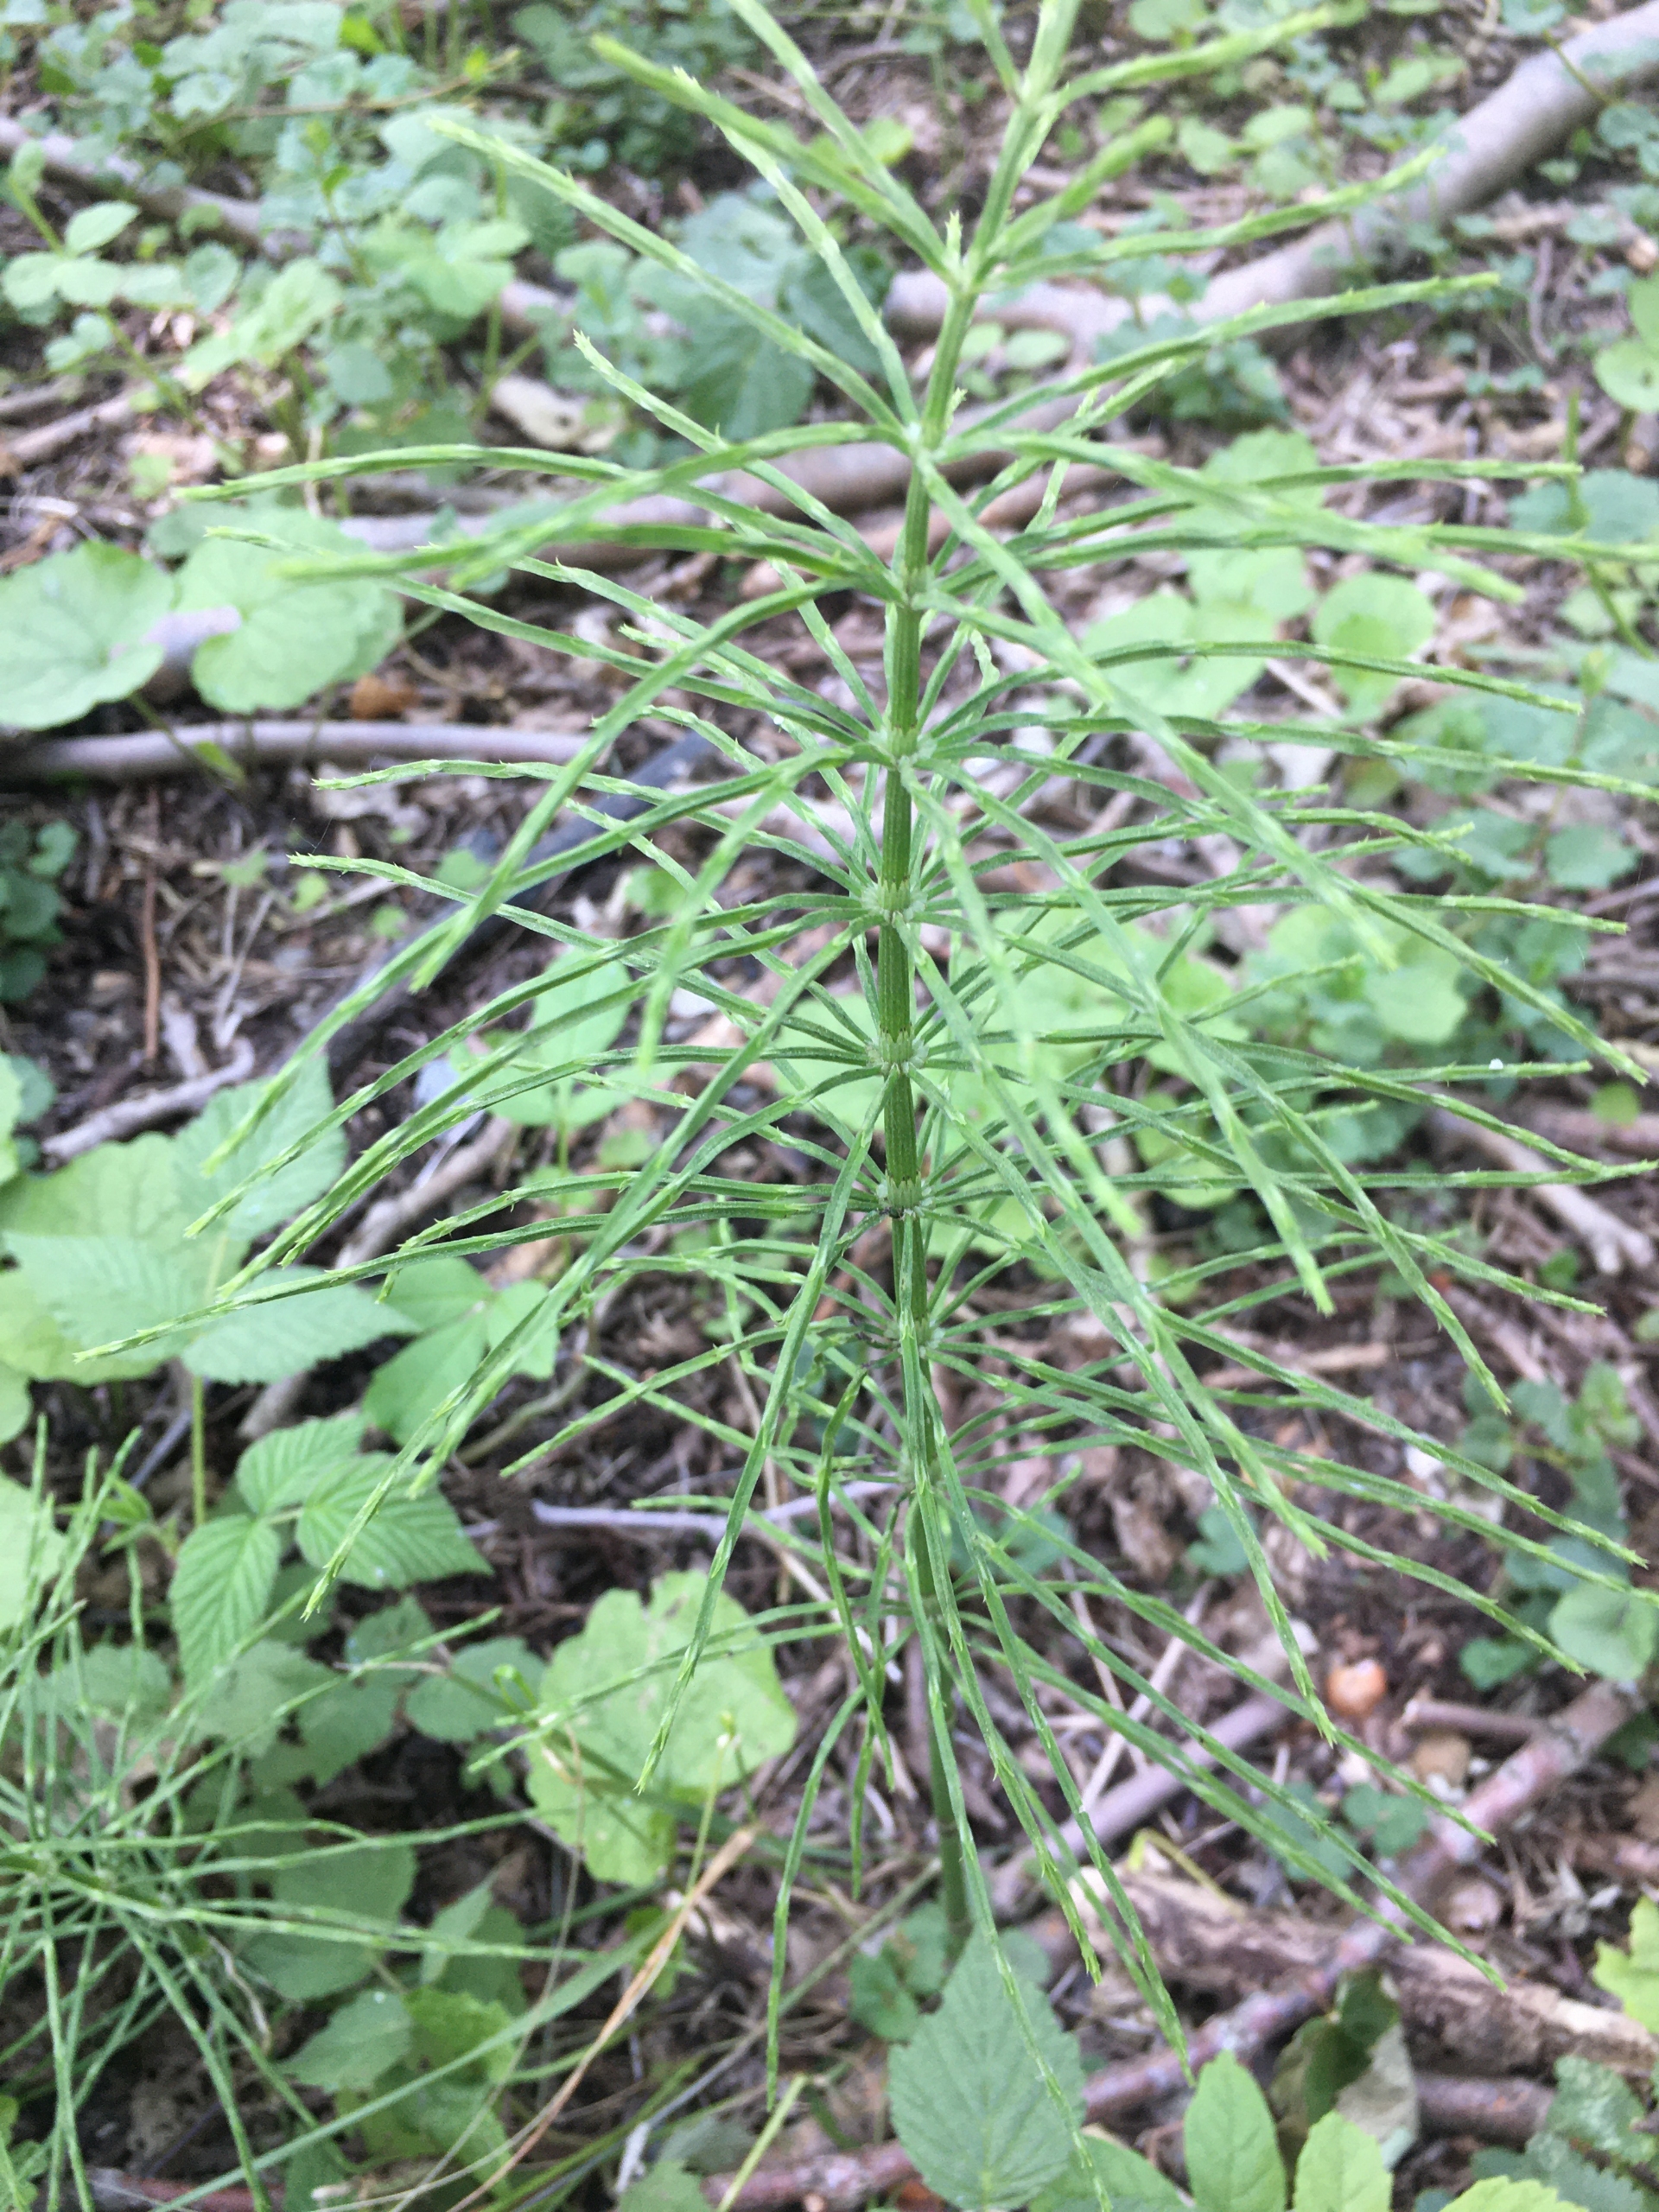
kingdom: Plantae
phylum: Tracheophyta
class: Polypodiopsida
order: Equisetales
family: Equisetaceae
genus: Equisetum
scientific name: Equisetum arvense
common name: Ager-padderok
